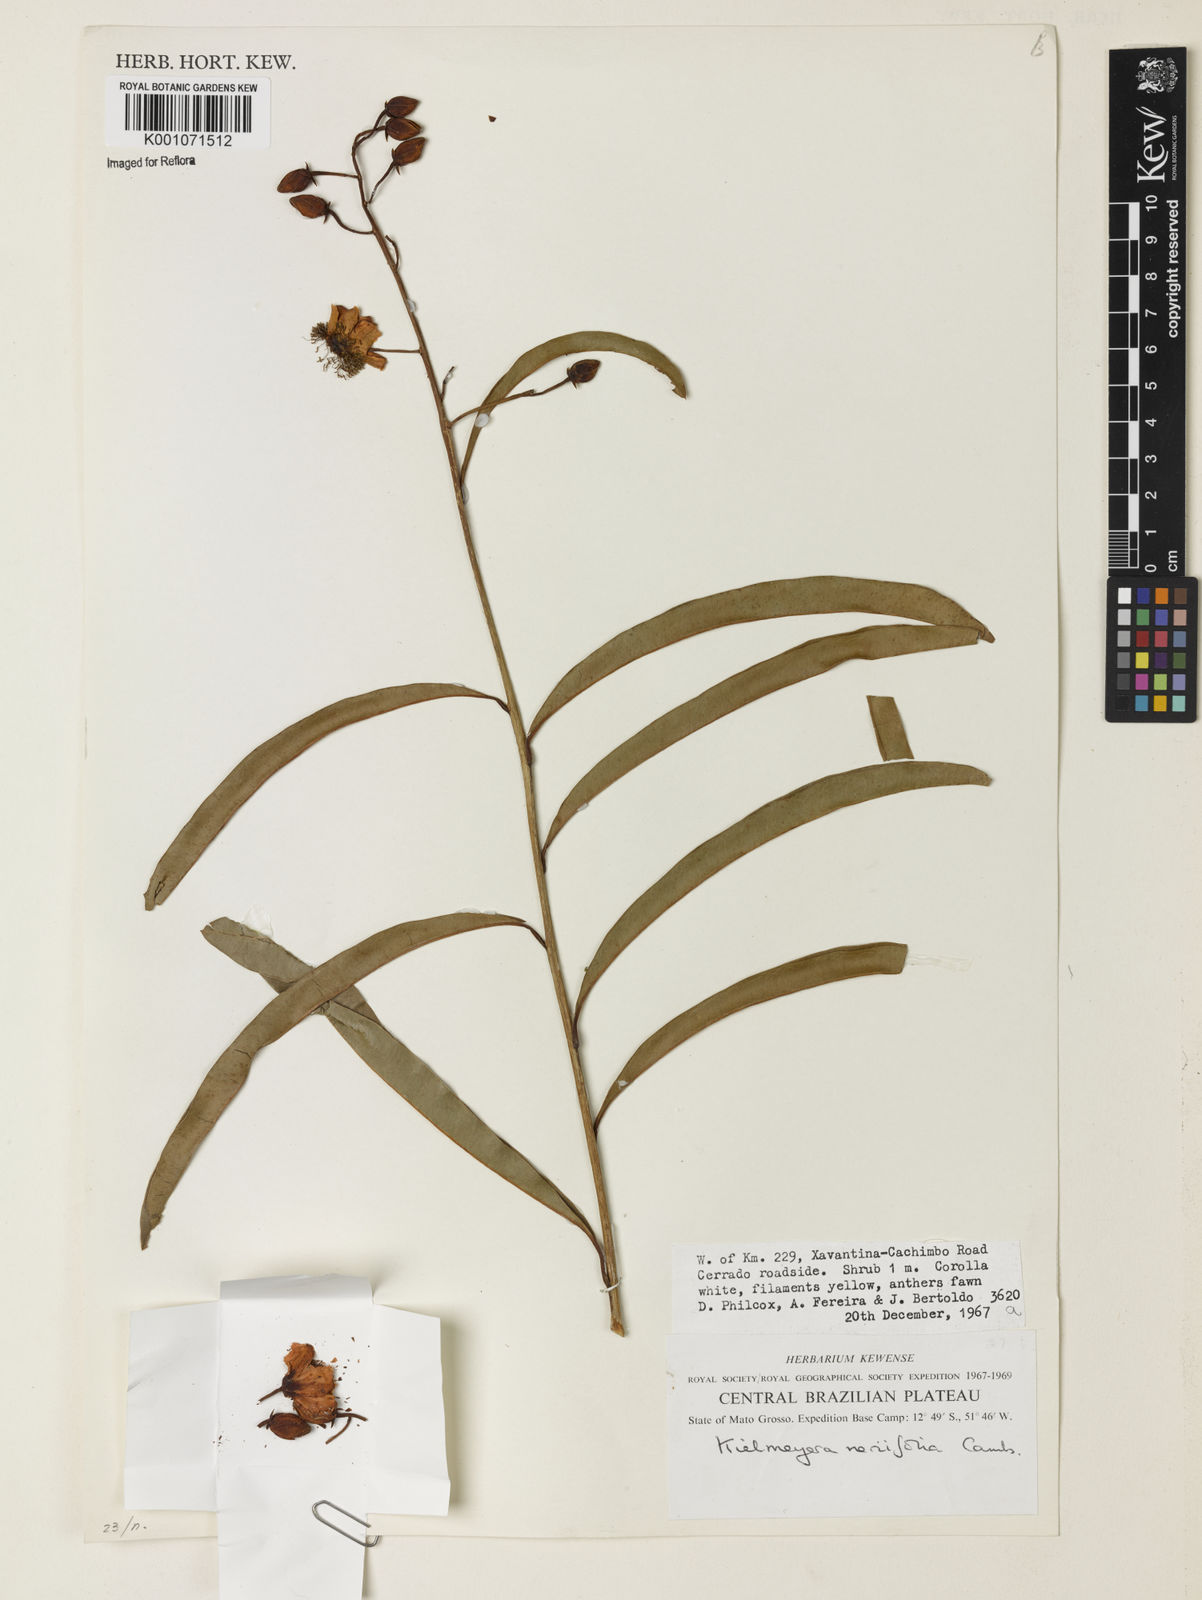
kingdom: Plantae
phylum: Tracheophyta
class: Magnoliopsida
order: Malpighiales
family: Calophyllaceae
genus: Kielmeyera
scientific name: Kielmeyera abdita
